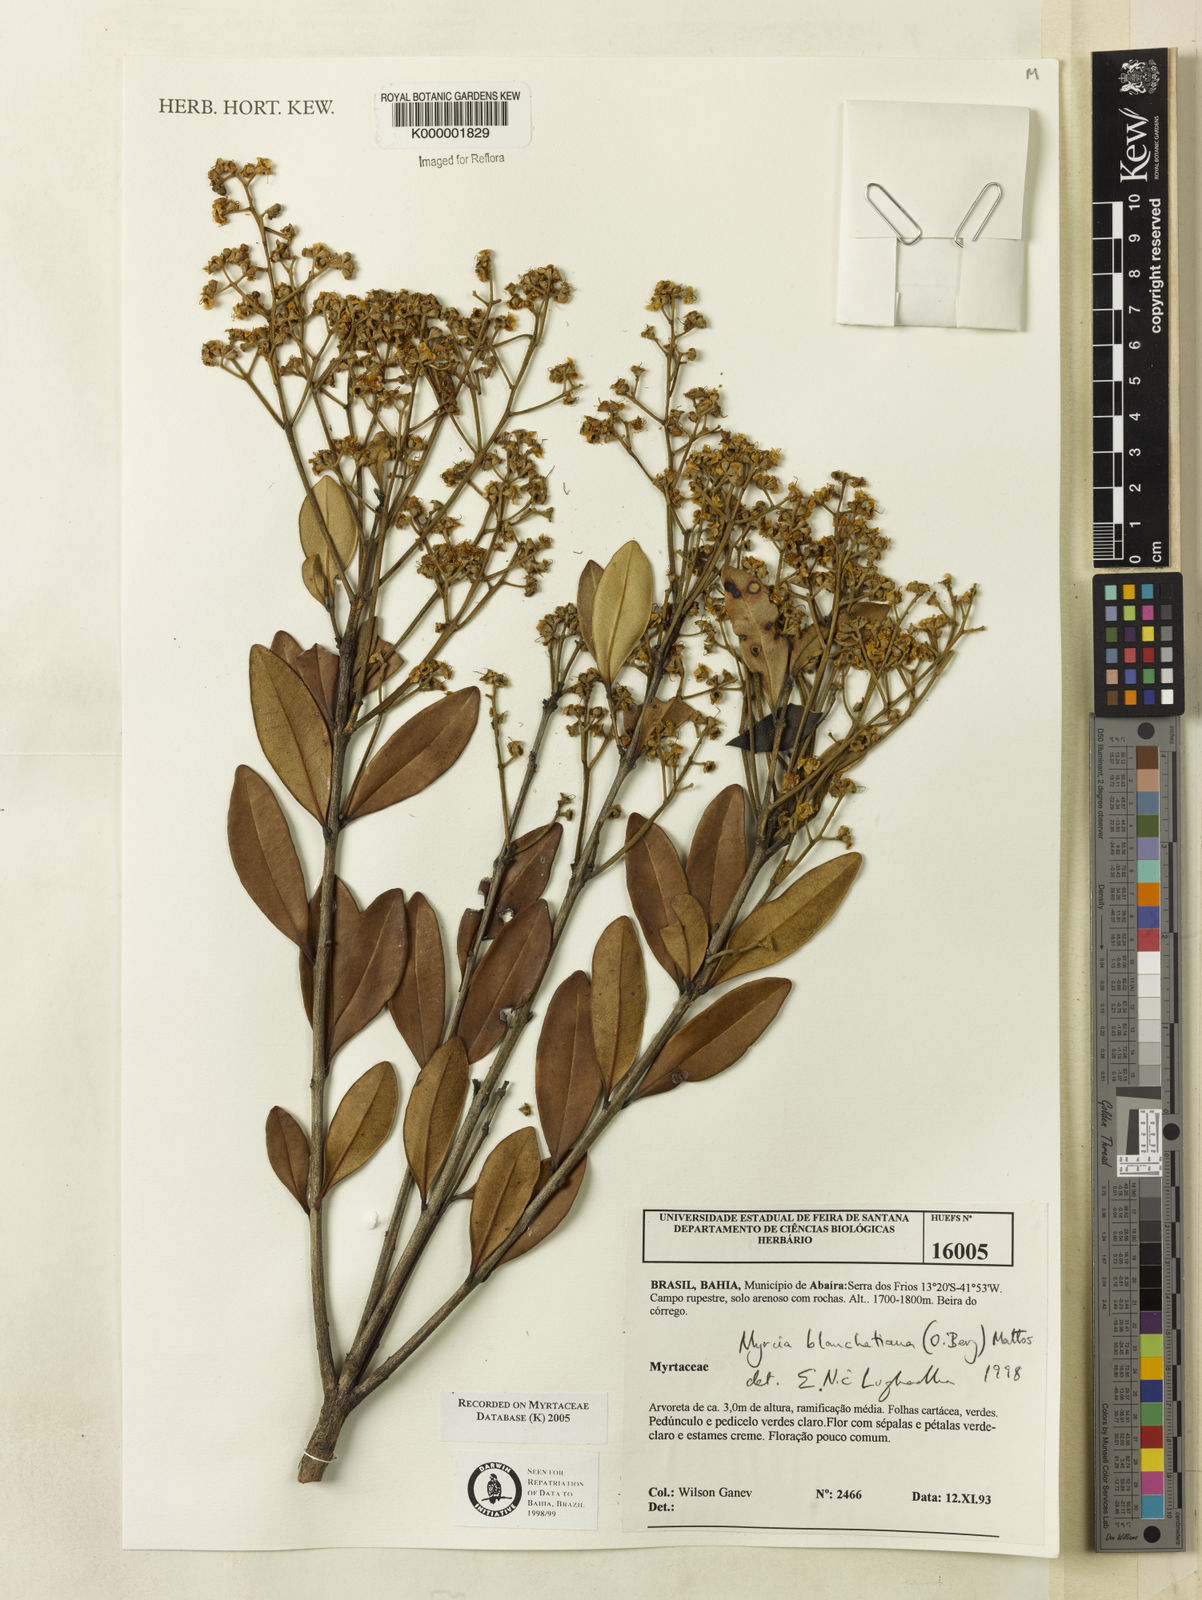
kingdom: Plantae
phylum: Tracheophyta
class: Magnoliopsida
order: Myrtales
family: Myrtaceae
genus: Myrcia
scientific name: Myrcia blanchetiana
